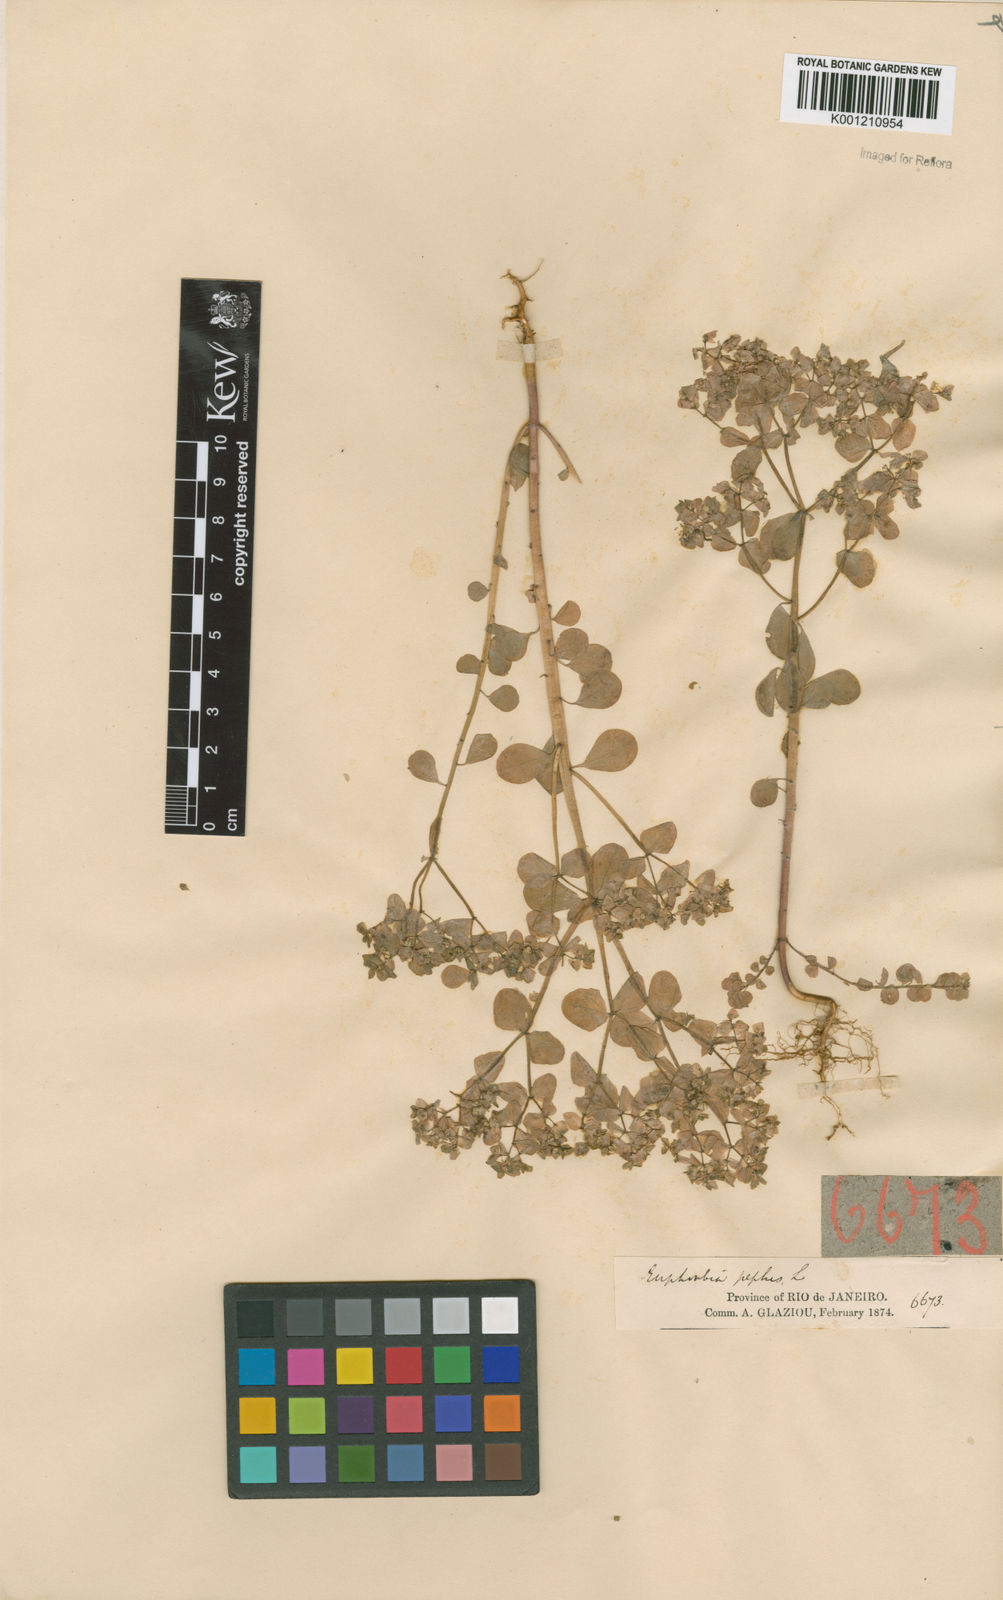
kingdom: Plantae
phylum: Tracheophyta
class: Magnoliopsida
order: Malpighiales
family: Euphorbiaceae
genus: Euphorbia
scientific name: Euphorbia peplus
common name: Petty spurge
